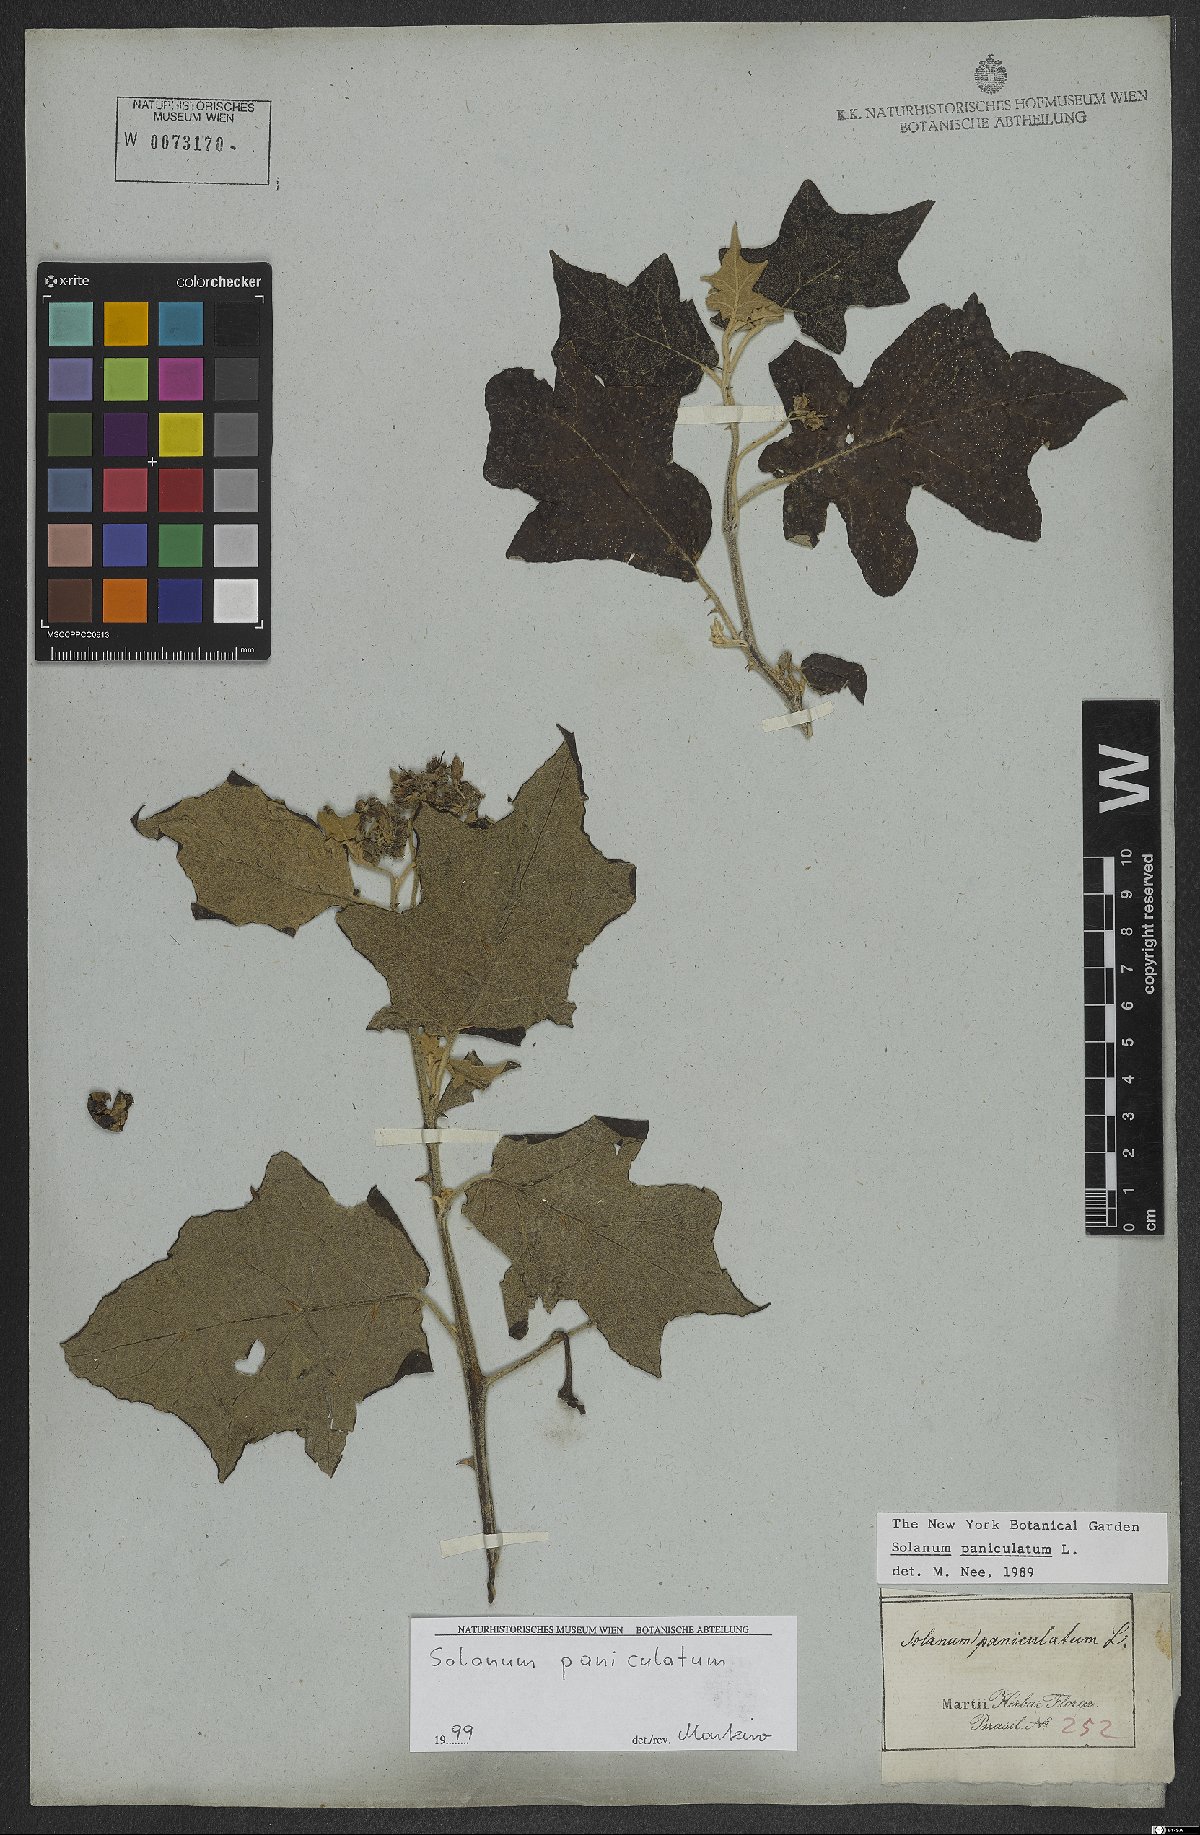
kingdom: Plantae
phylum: Tracheophyta
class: Magnoliopsida
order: Solanales
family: Solanaceae
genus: Solanum
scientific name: Solanum paniculatum
